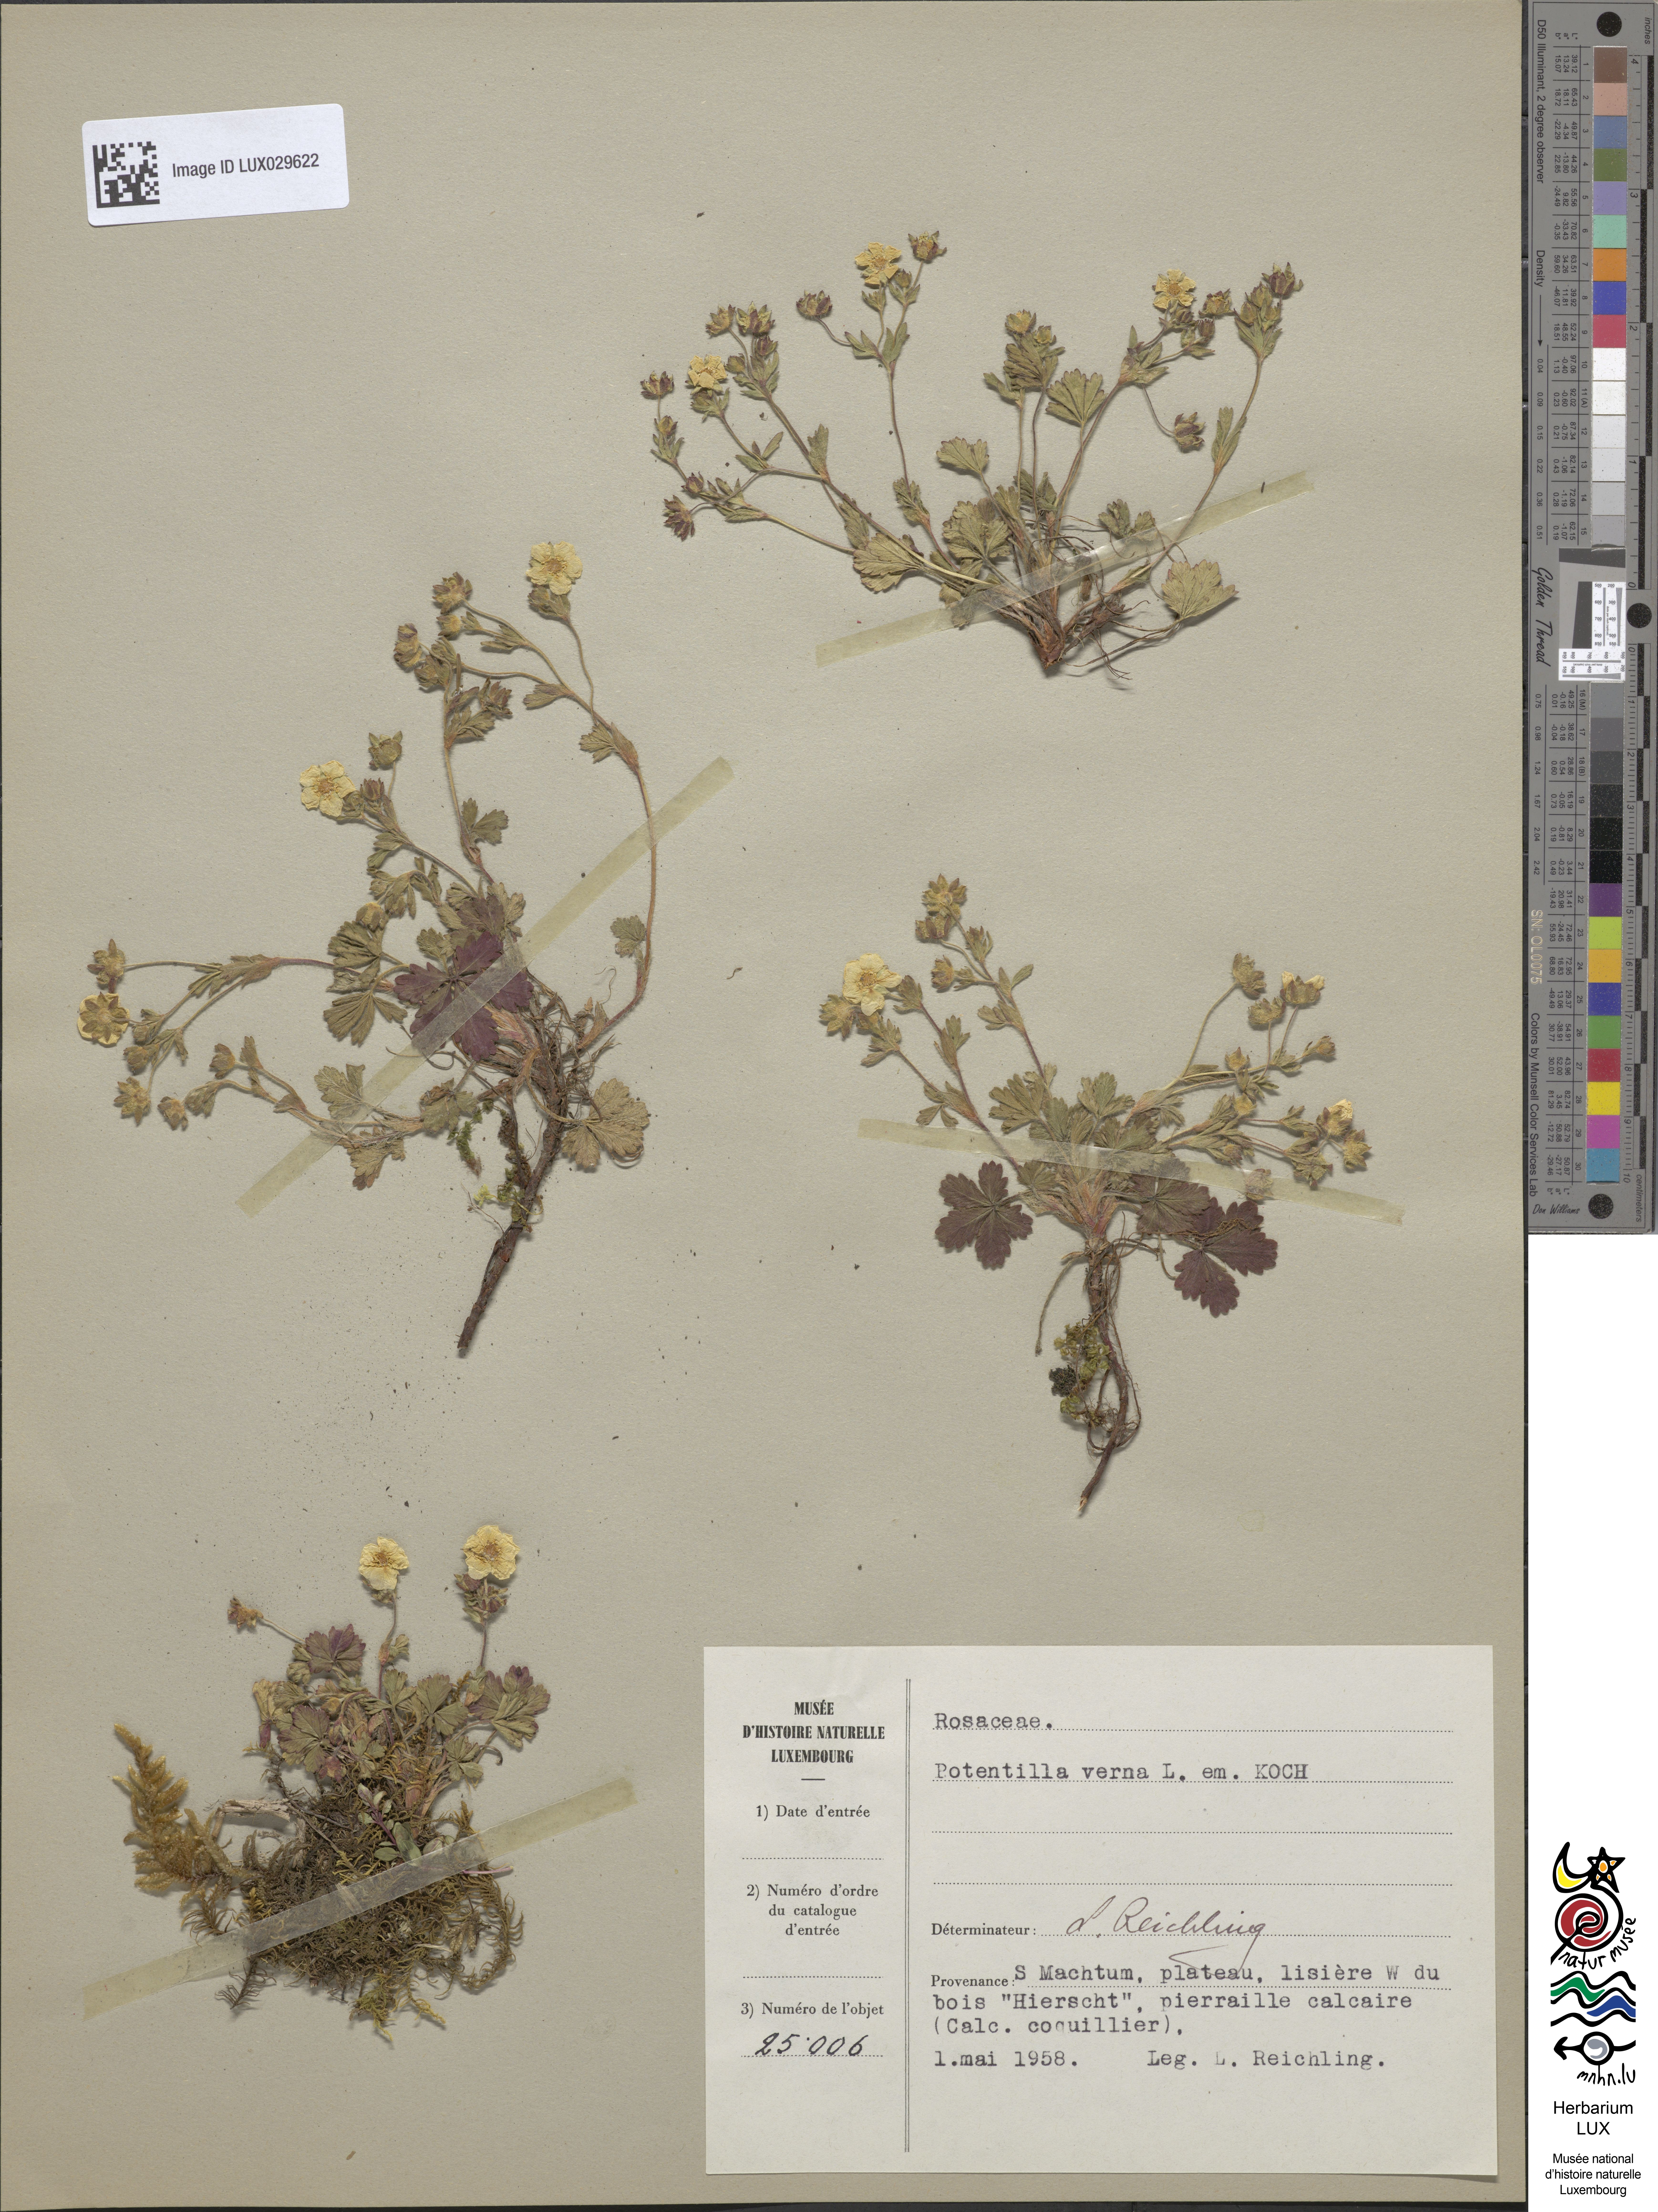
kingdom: Plantae
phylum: Tracheophyta
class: Magnoliopsida
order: Rosales
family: Rosaceae
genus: Potentilla
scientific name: Potentilla verna
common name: Spring cinquefoil
